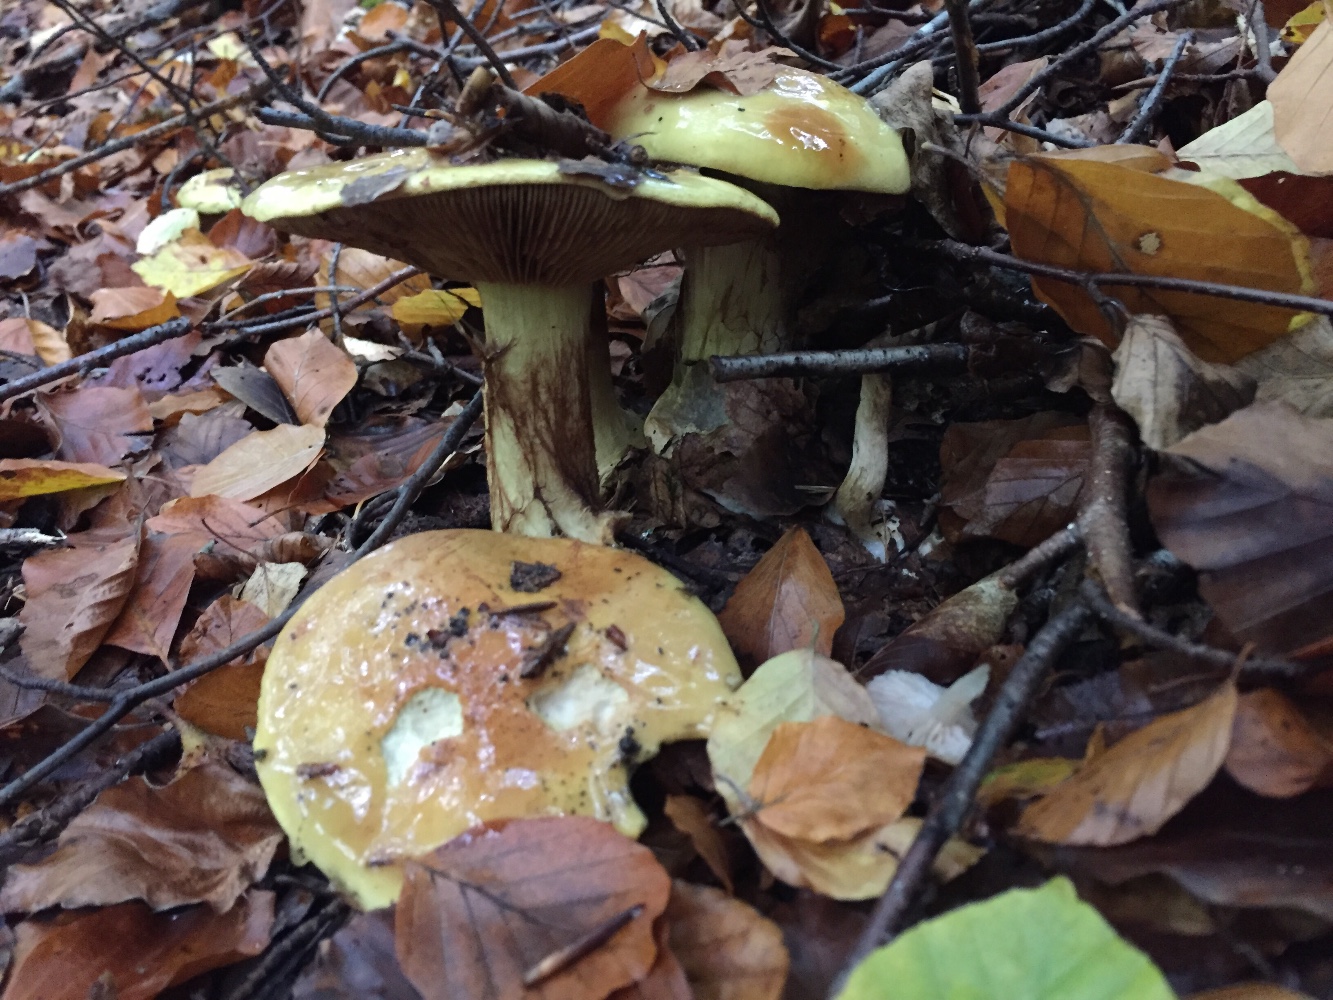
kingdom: Fungi
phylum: Basidiomycota
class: Agaricomycetes
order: Agaricales
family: Cortinariaceae
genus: Calonarius
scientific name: Calonarius elegantissimus
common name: orangegylden slørhat
